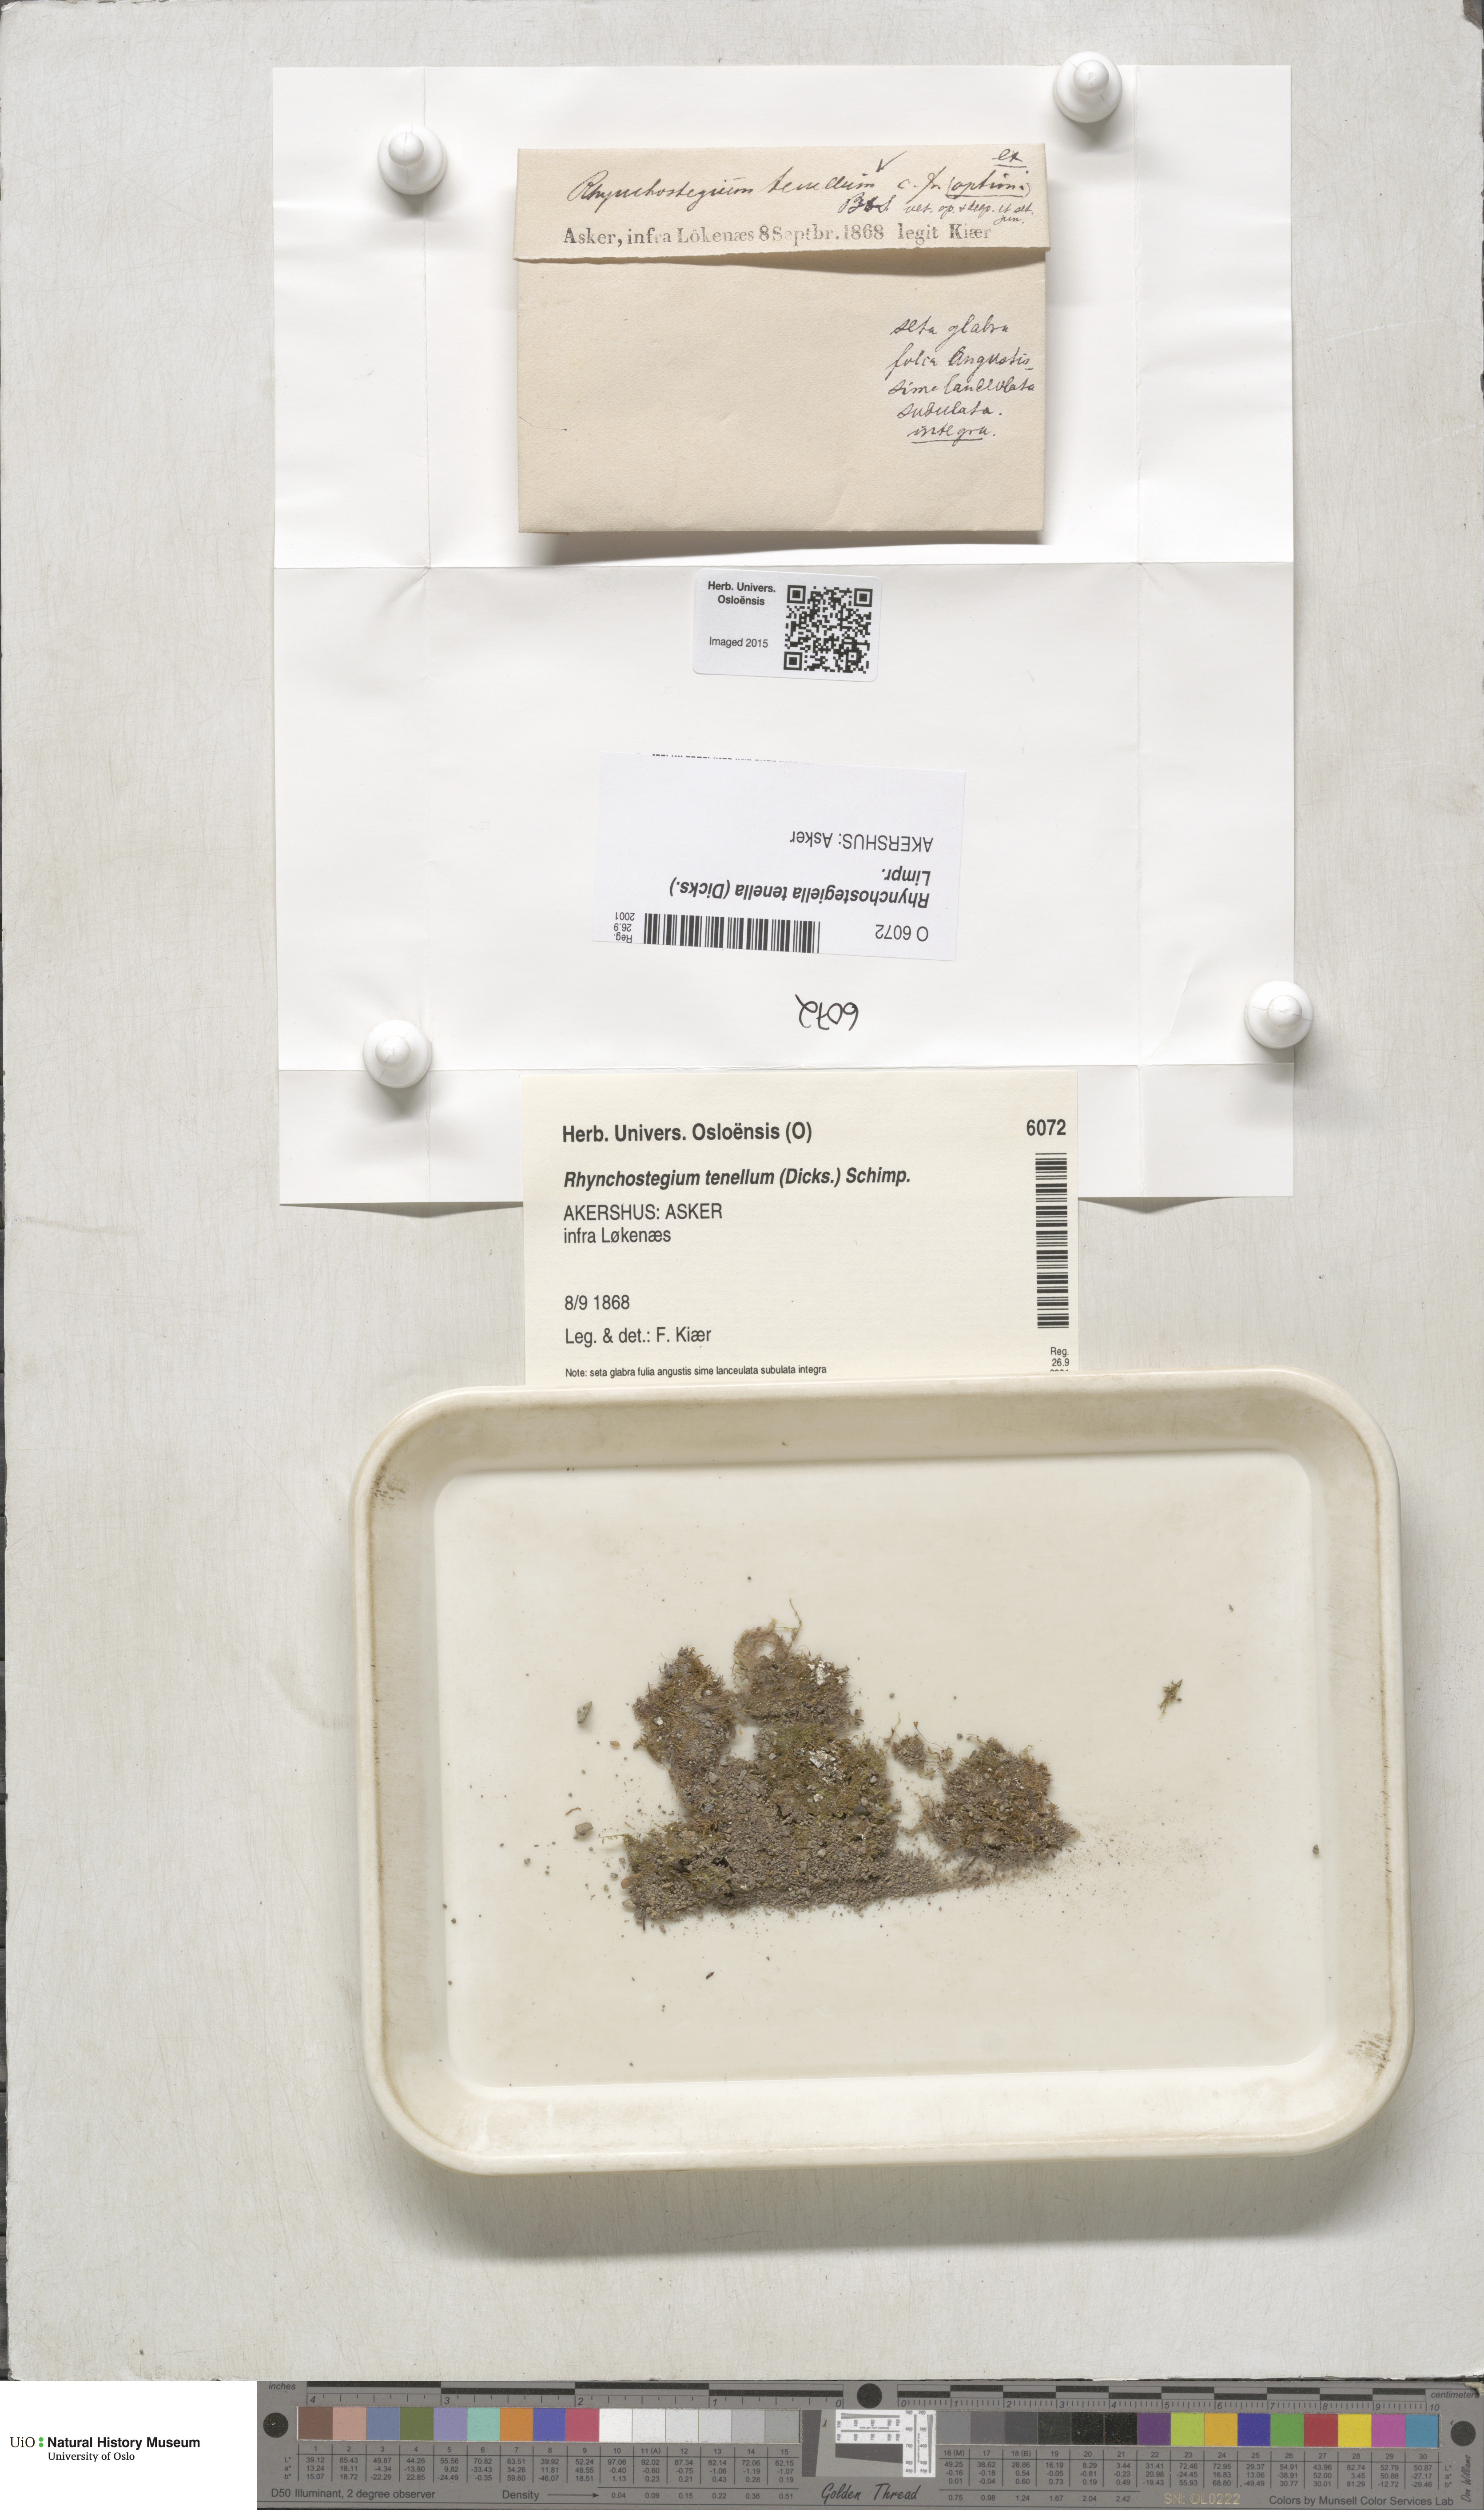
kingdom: Plantae
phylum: Bryophyta
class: Bryopsida
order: Hypnales
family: Brachytheciaceae
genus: Rhynchostegiella
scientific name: Rhynchostegiella tenella
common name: Tender feather-moss
